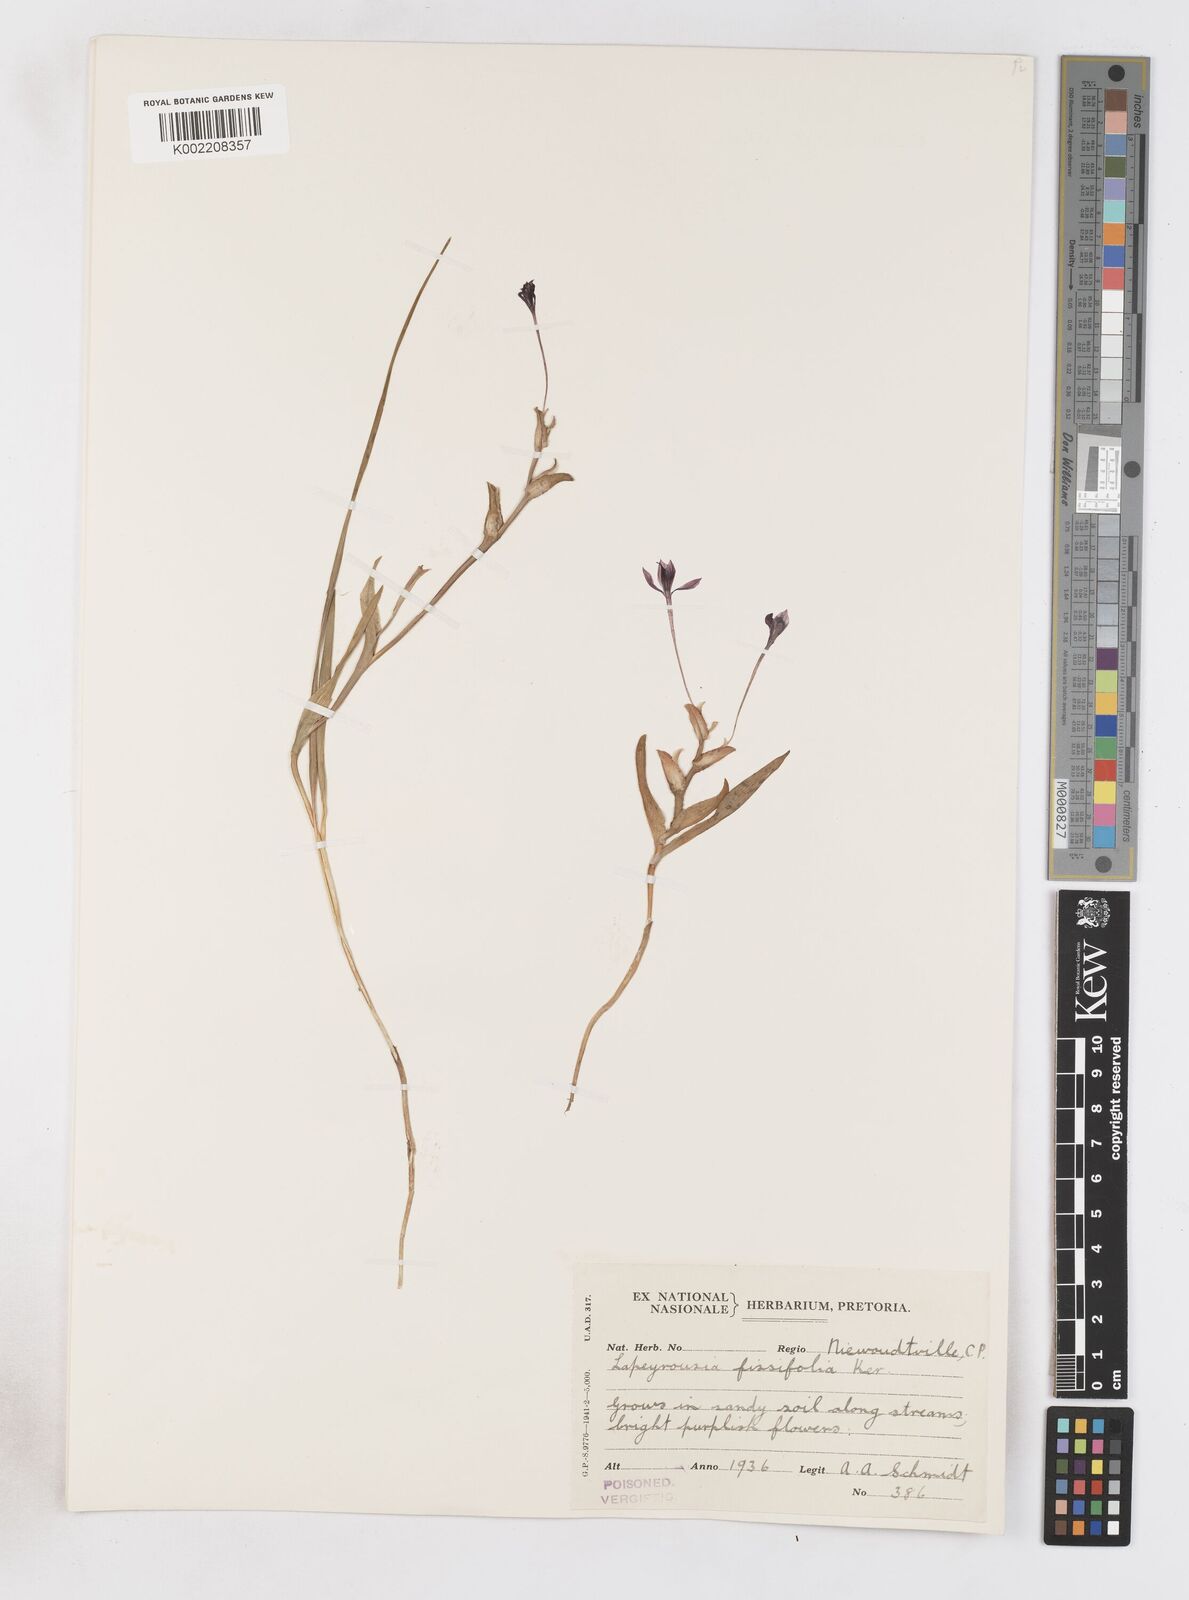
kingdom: Plantae
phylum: Tracheophyta
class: Liliopsida
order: Asparagales
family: Iridaceae
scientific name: Iridaceae
